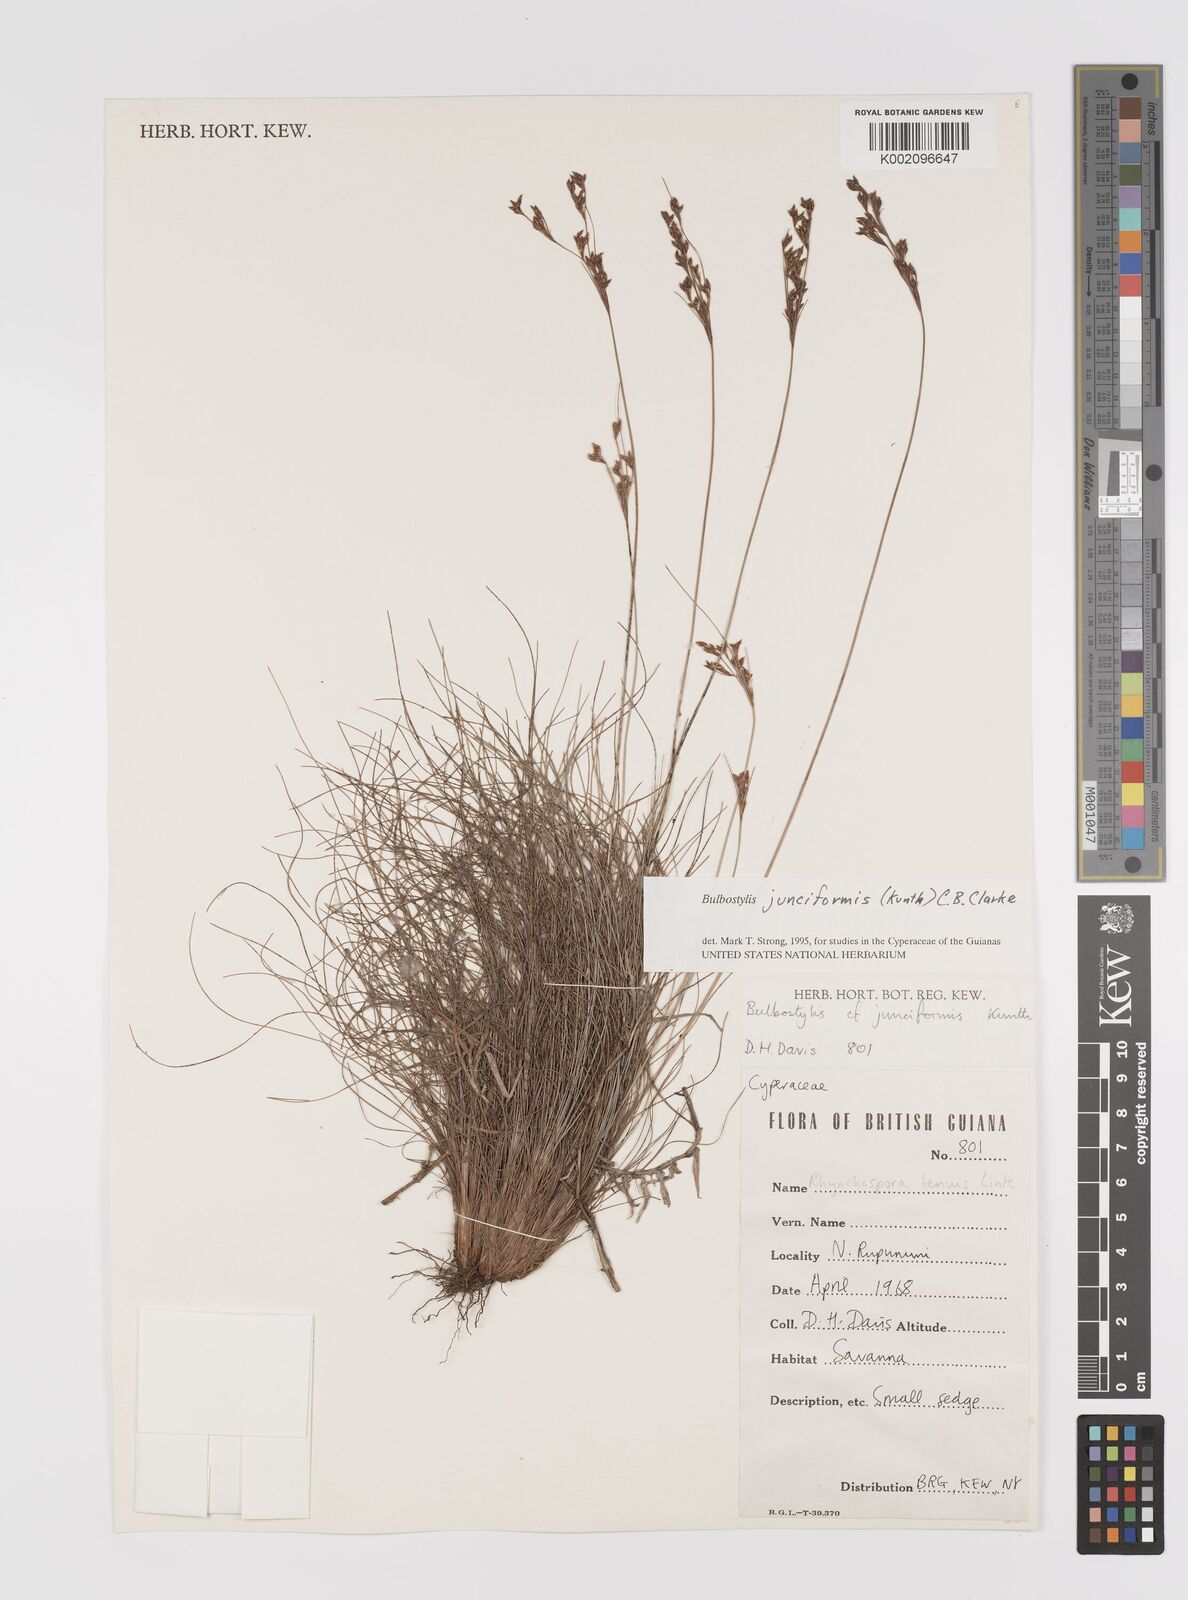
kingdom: Plantae
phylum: Tracheophyta
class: Liliopsida
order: Poales
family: Cyperaceae
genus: Bulbostylis
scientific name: Bulbostylis junciformis
